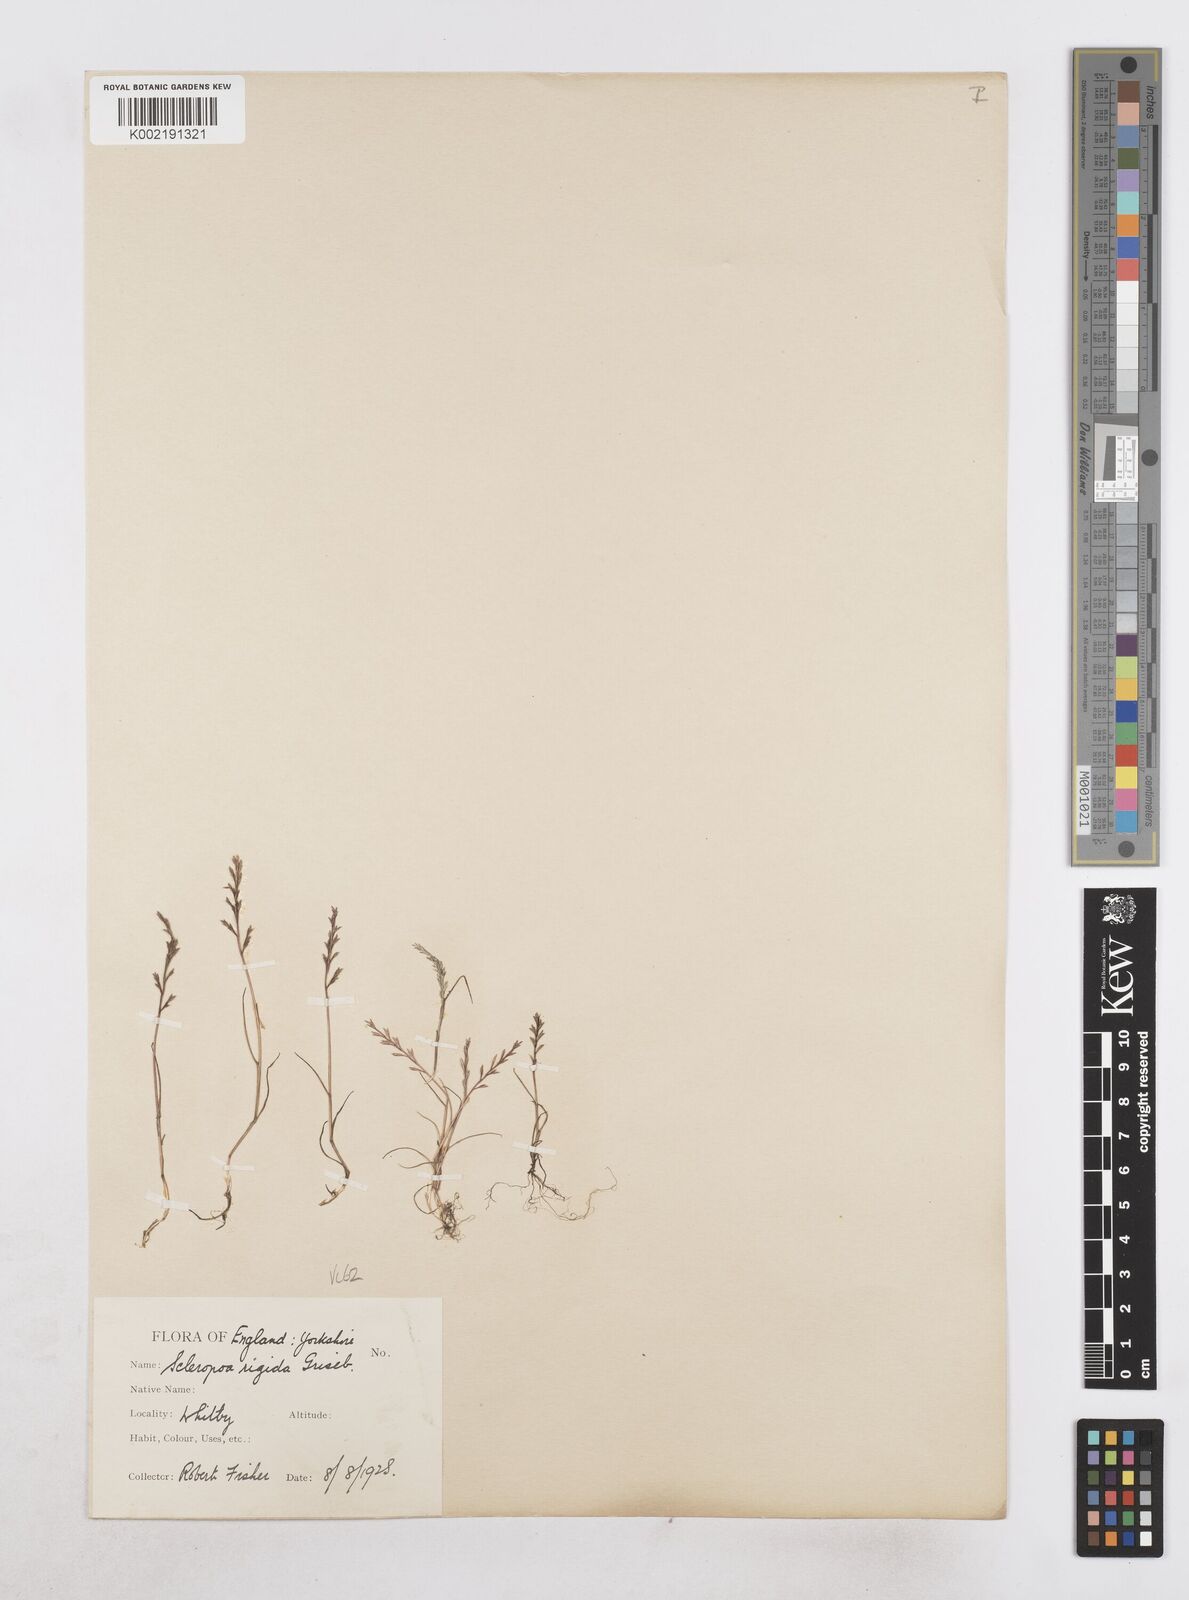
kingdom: Plantae
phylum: Tracheophyta
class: Liliopsida
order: Poales
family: Poaceae
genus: Catapodium
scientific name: Catapodium rigidum
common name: Fern-grass
